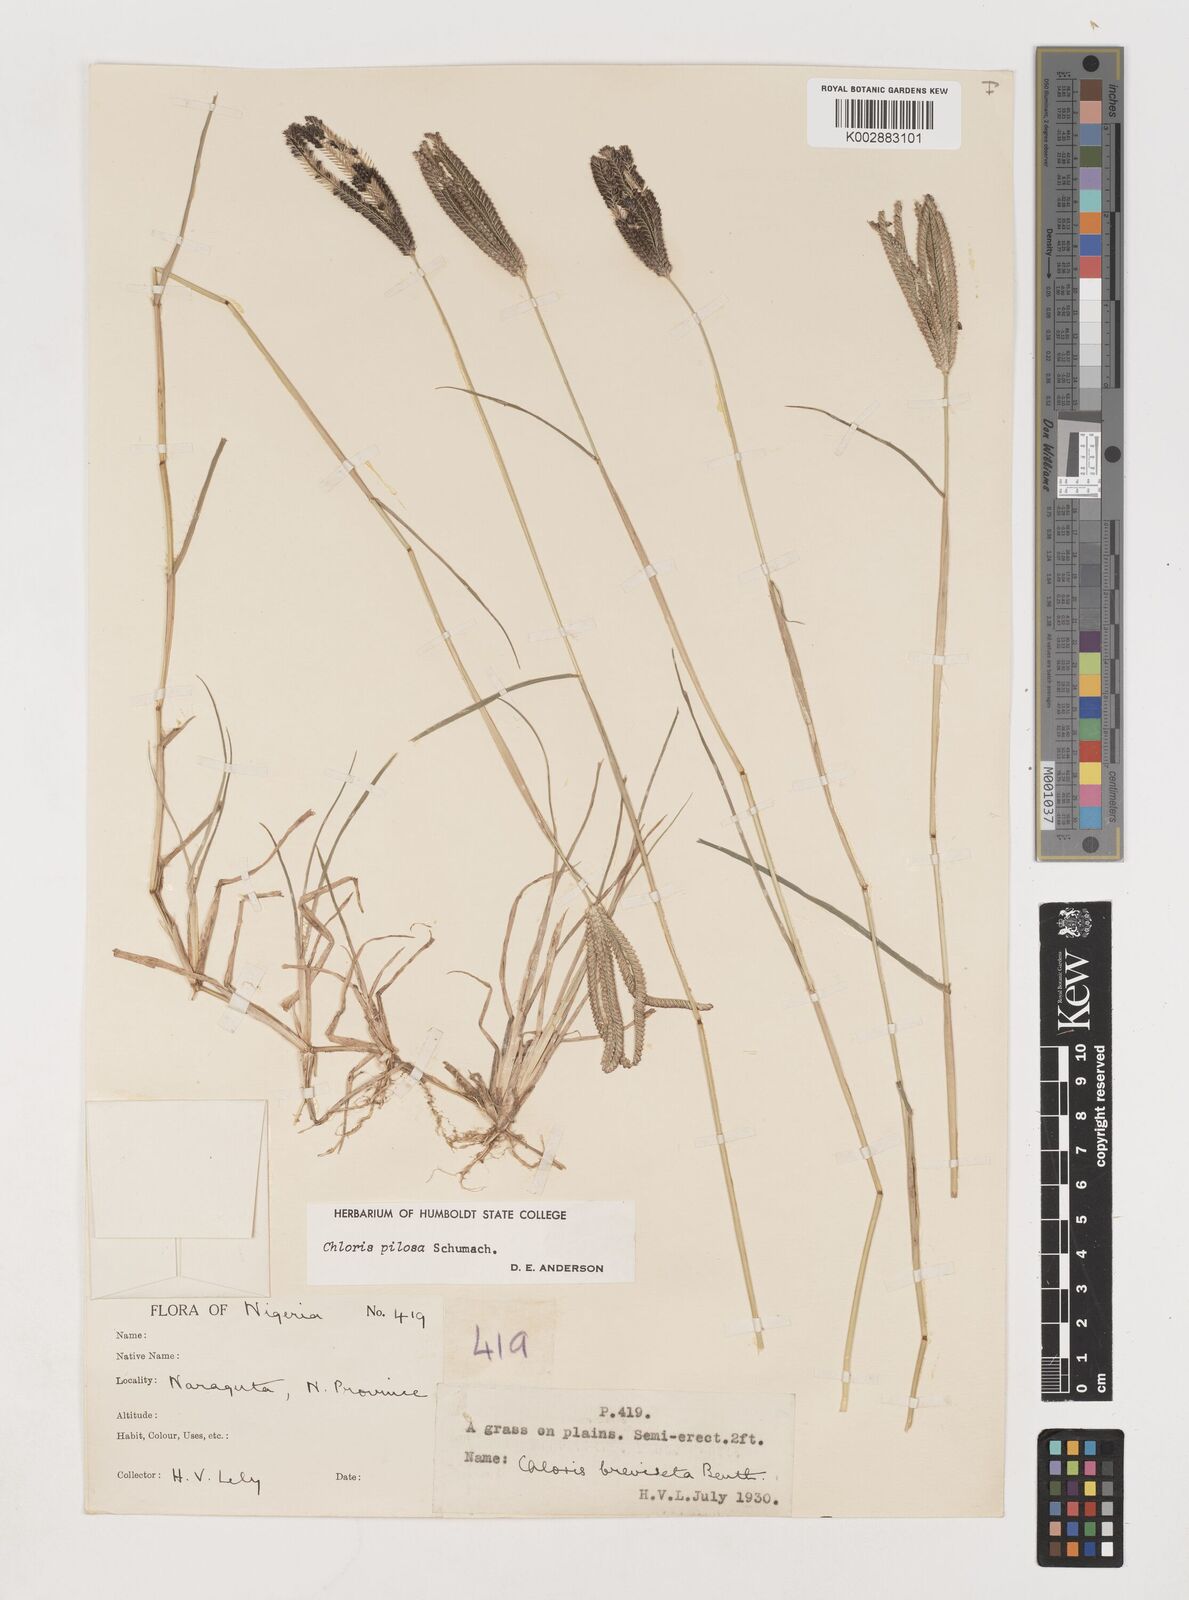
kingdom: Plantae
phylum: Tracheophyta
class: Liliopsida
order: Poales
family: Poaceae
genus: Chloris
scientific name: Chloris pilosa
